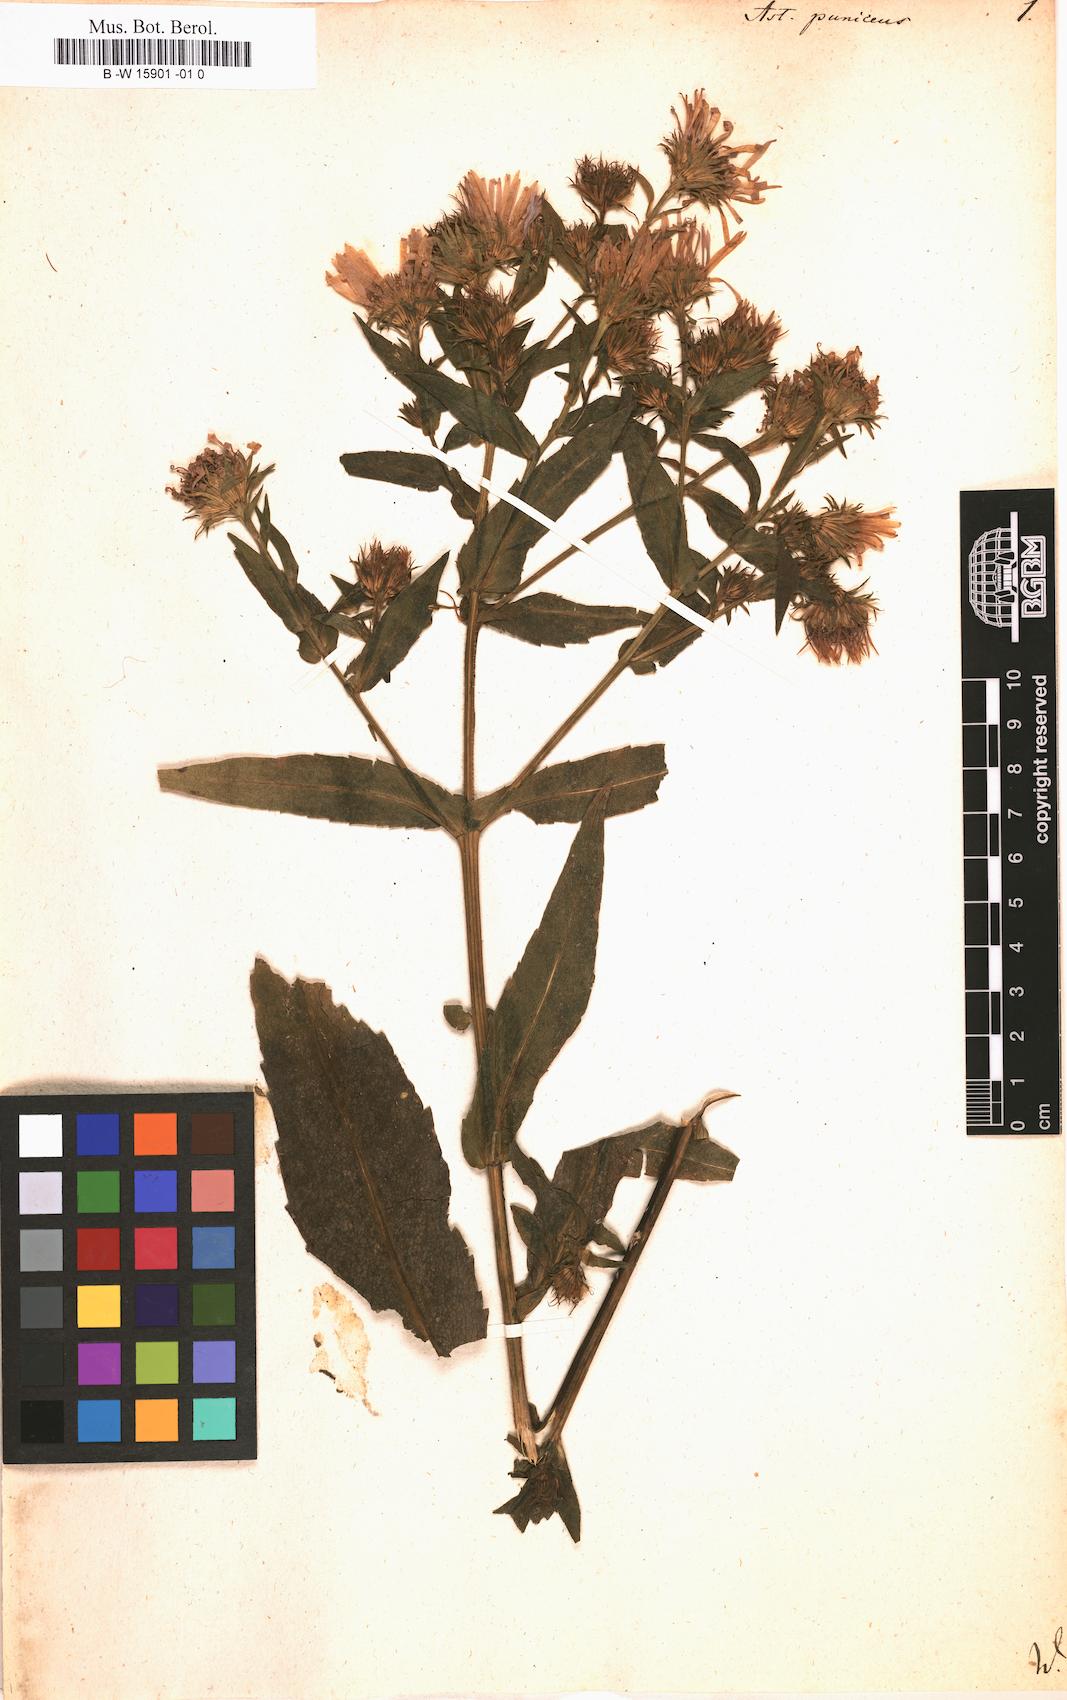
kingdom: Plantae
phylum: Tracheophyta
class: Magnoliopsida
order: Asterales
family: Asteraceae
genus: Symphyotrichum
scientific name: Symphyotrichum puniceum
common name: Bog aster
